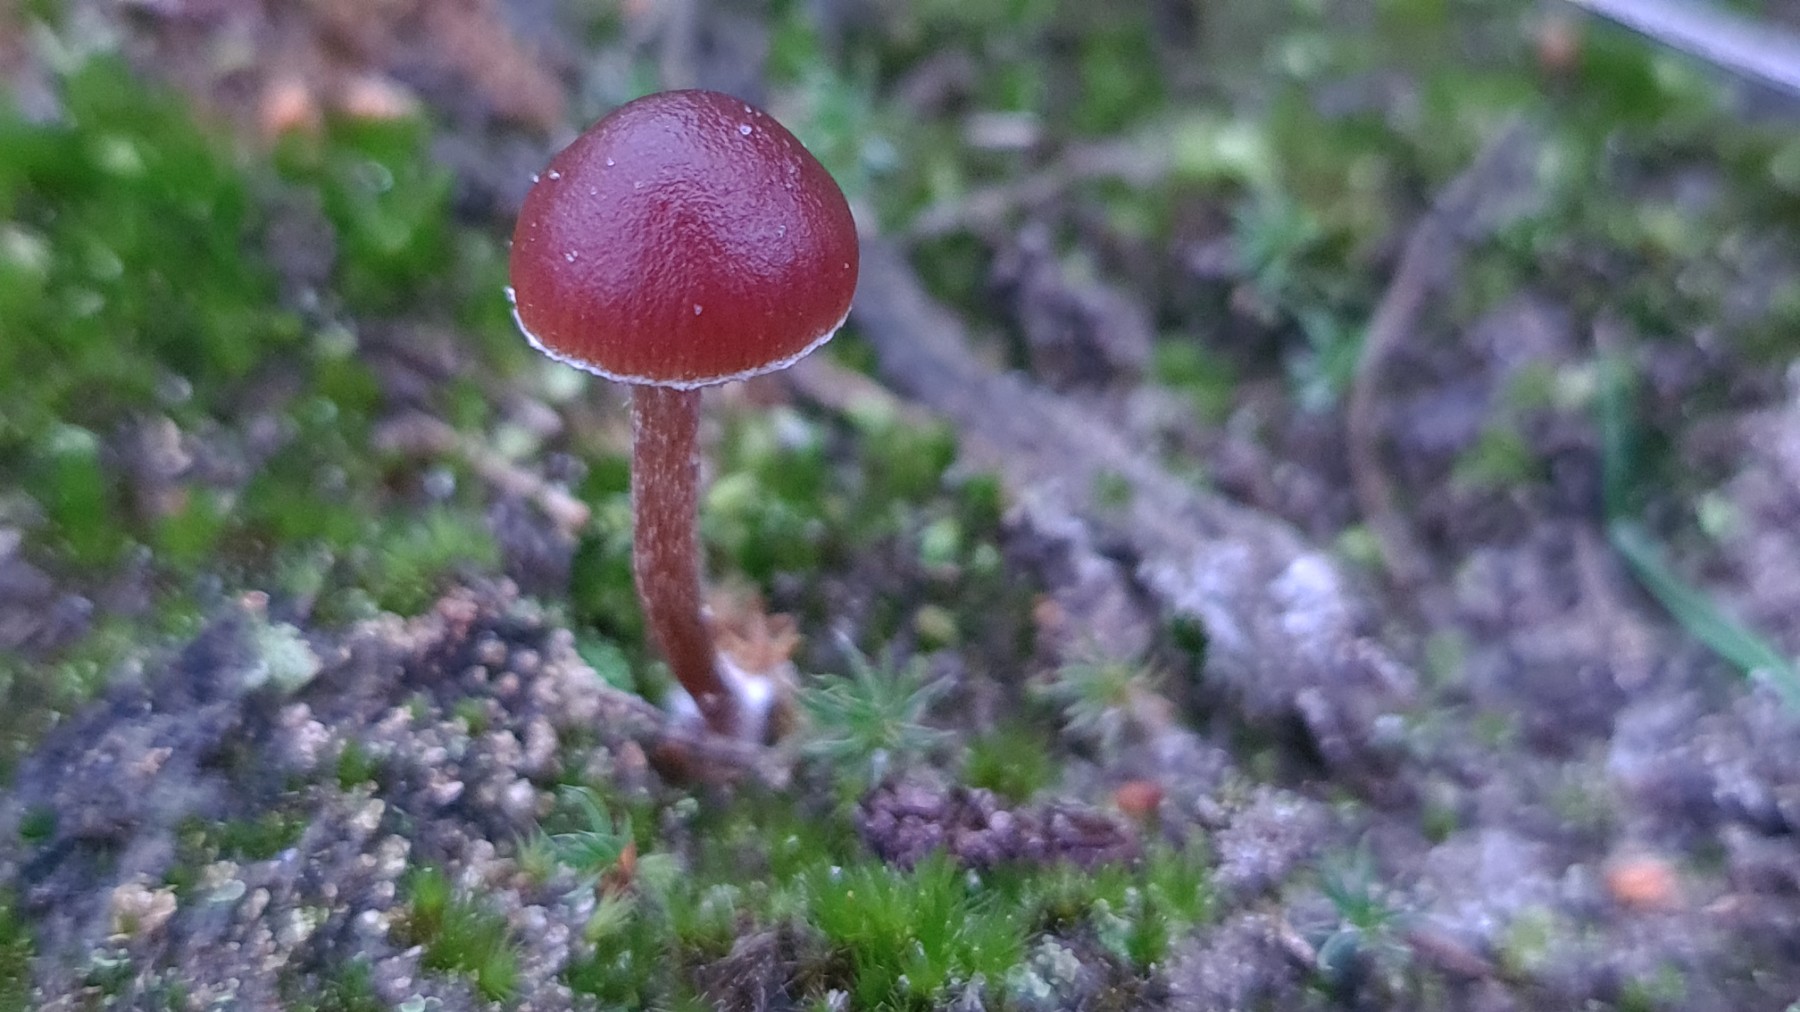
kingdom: Fungi
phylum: Basidiomycota
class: Agaricomycetes
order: Agaricales
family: Strophariaceae
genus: Deconica
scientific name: Deconica montana
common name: rødbrun stråhat
